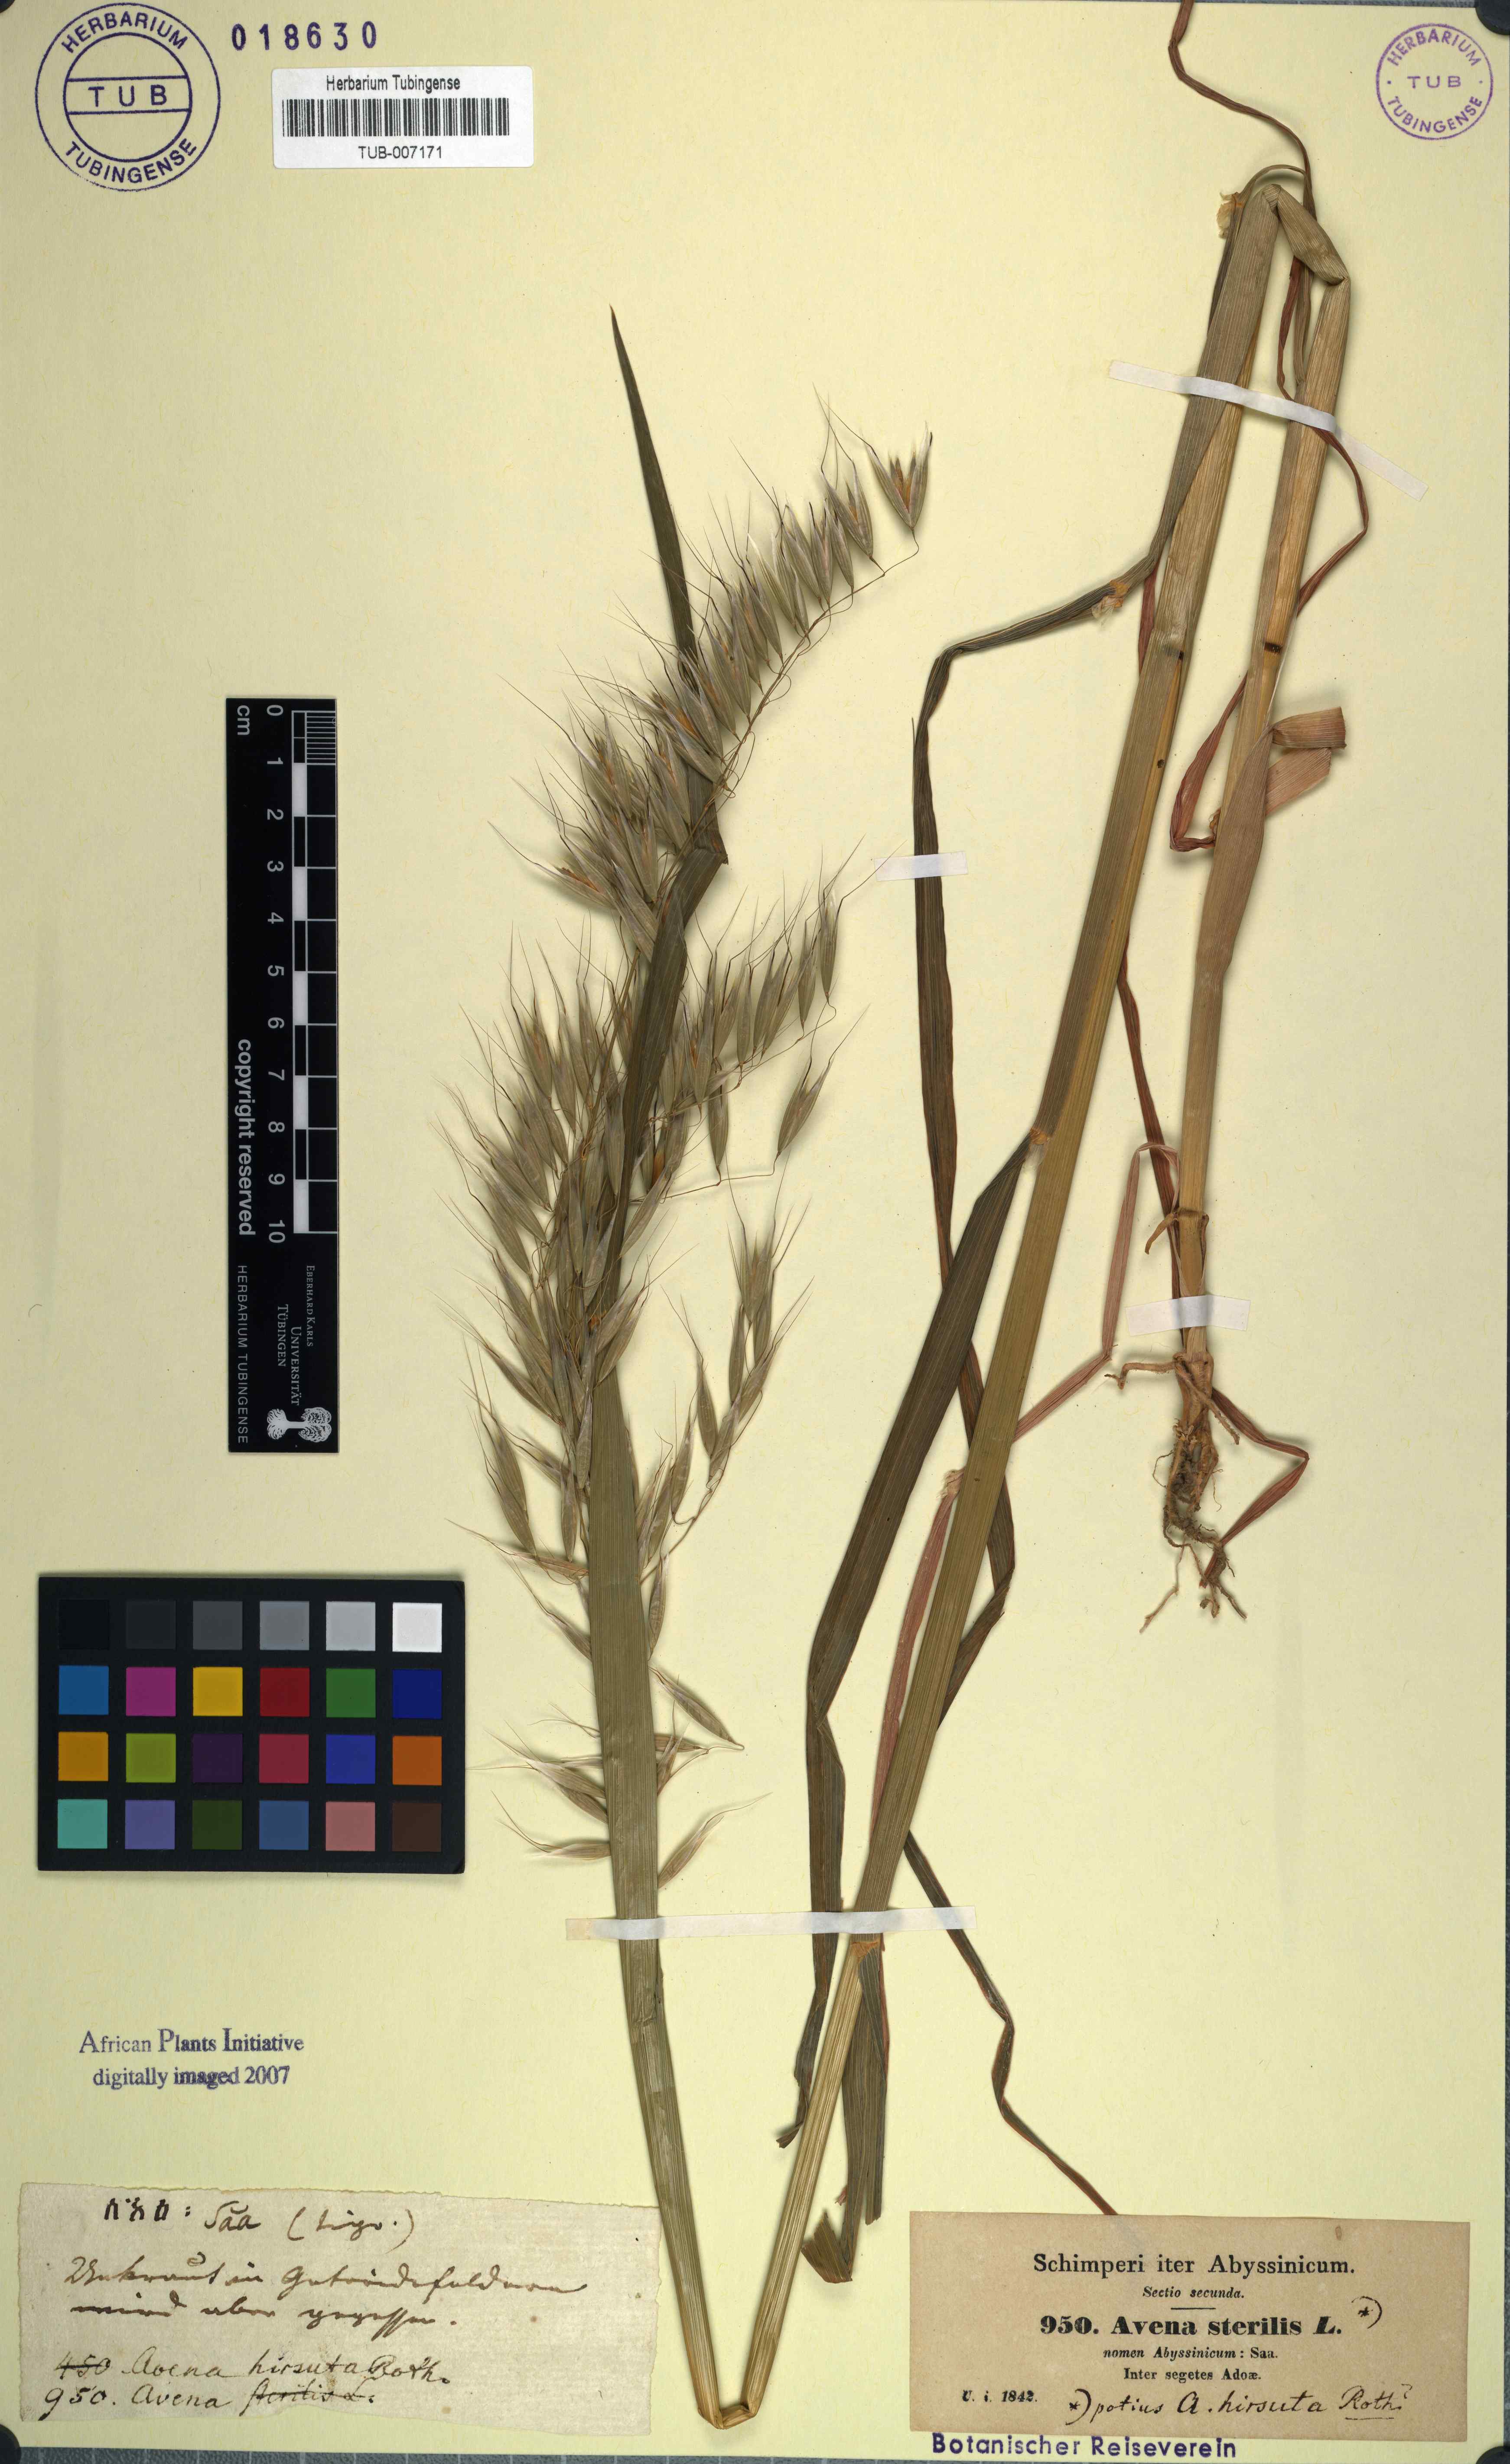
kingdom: Plantae
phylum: Tracheophyta
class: Liliopsida
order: Poales
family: Poaceae
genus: Avena
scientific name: Avena sterilis
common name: Animated oat
